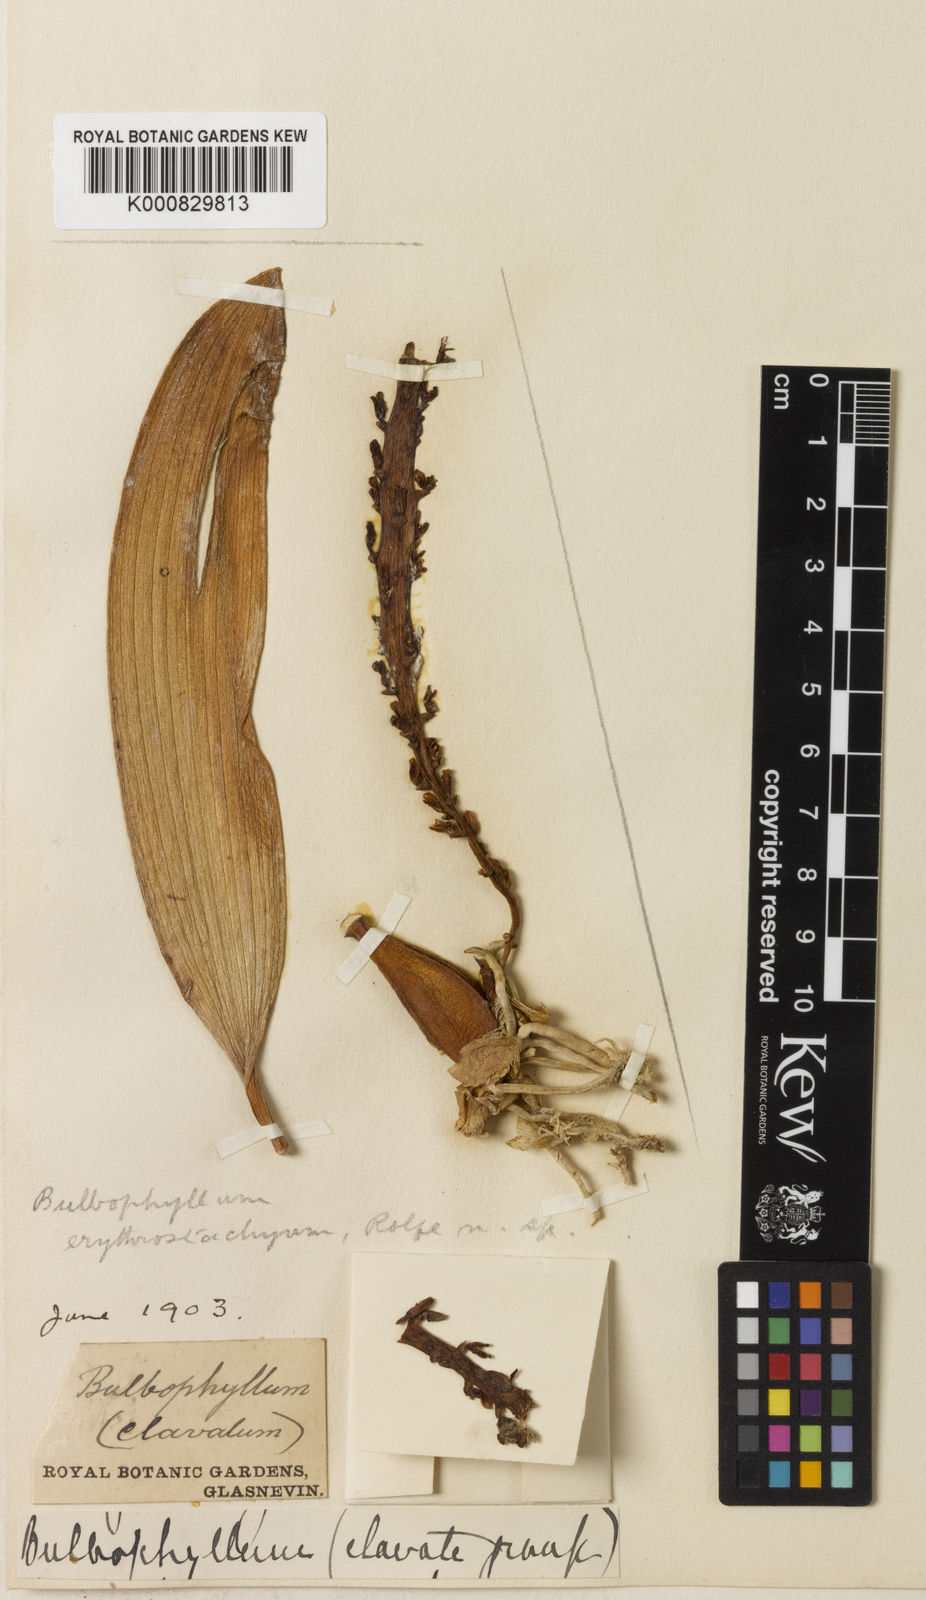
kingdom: Plantae
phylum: Tracheophyta
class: Liliopsida
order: Asparagales
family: Orchidaceae
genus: Bulbophyllum
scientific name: Bulbophyllum erythrostachyum
